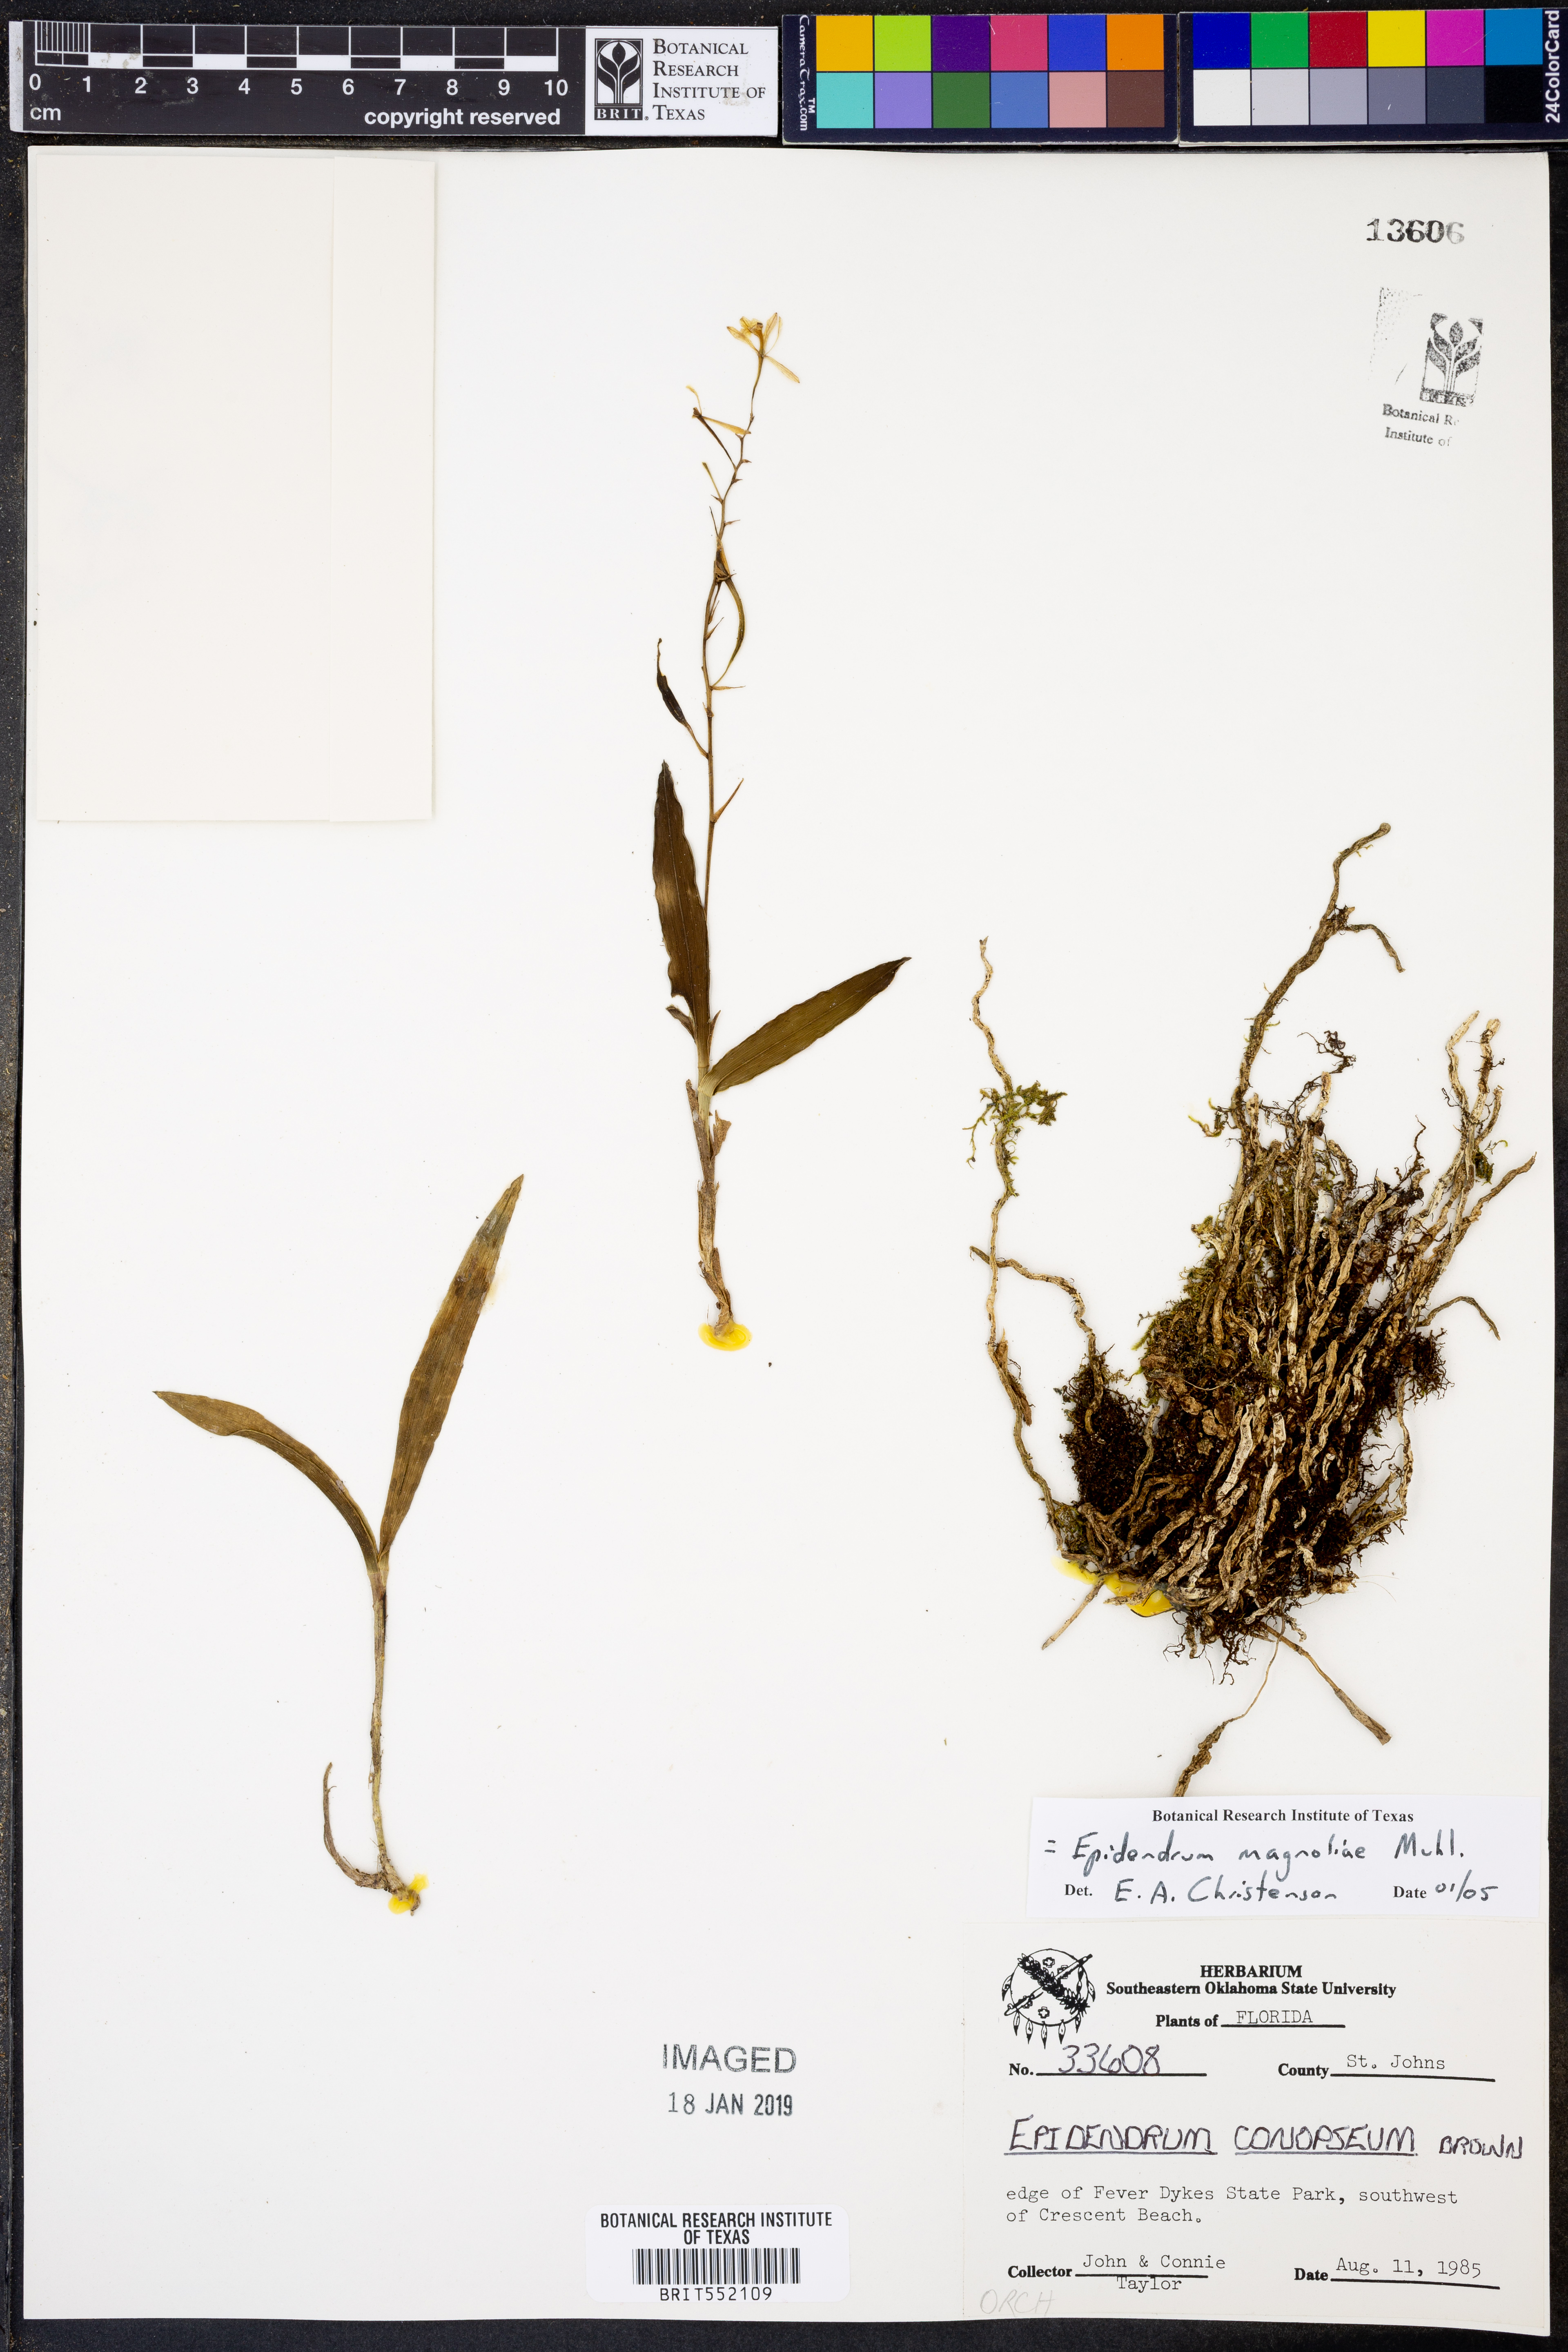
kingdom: Plantae
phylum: Tracheophyta
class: Liliopsida
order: Asparagales
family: Orchidaceae
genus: Epidendrum
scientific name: Epidendrum magnoliae
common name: Green fly orchid
